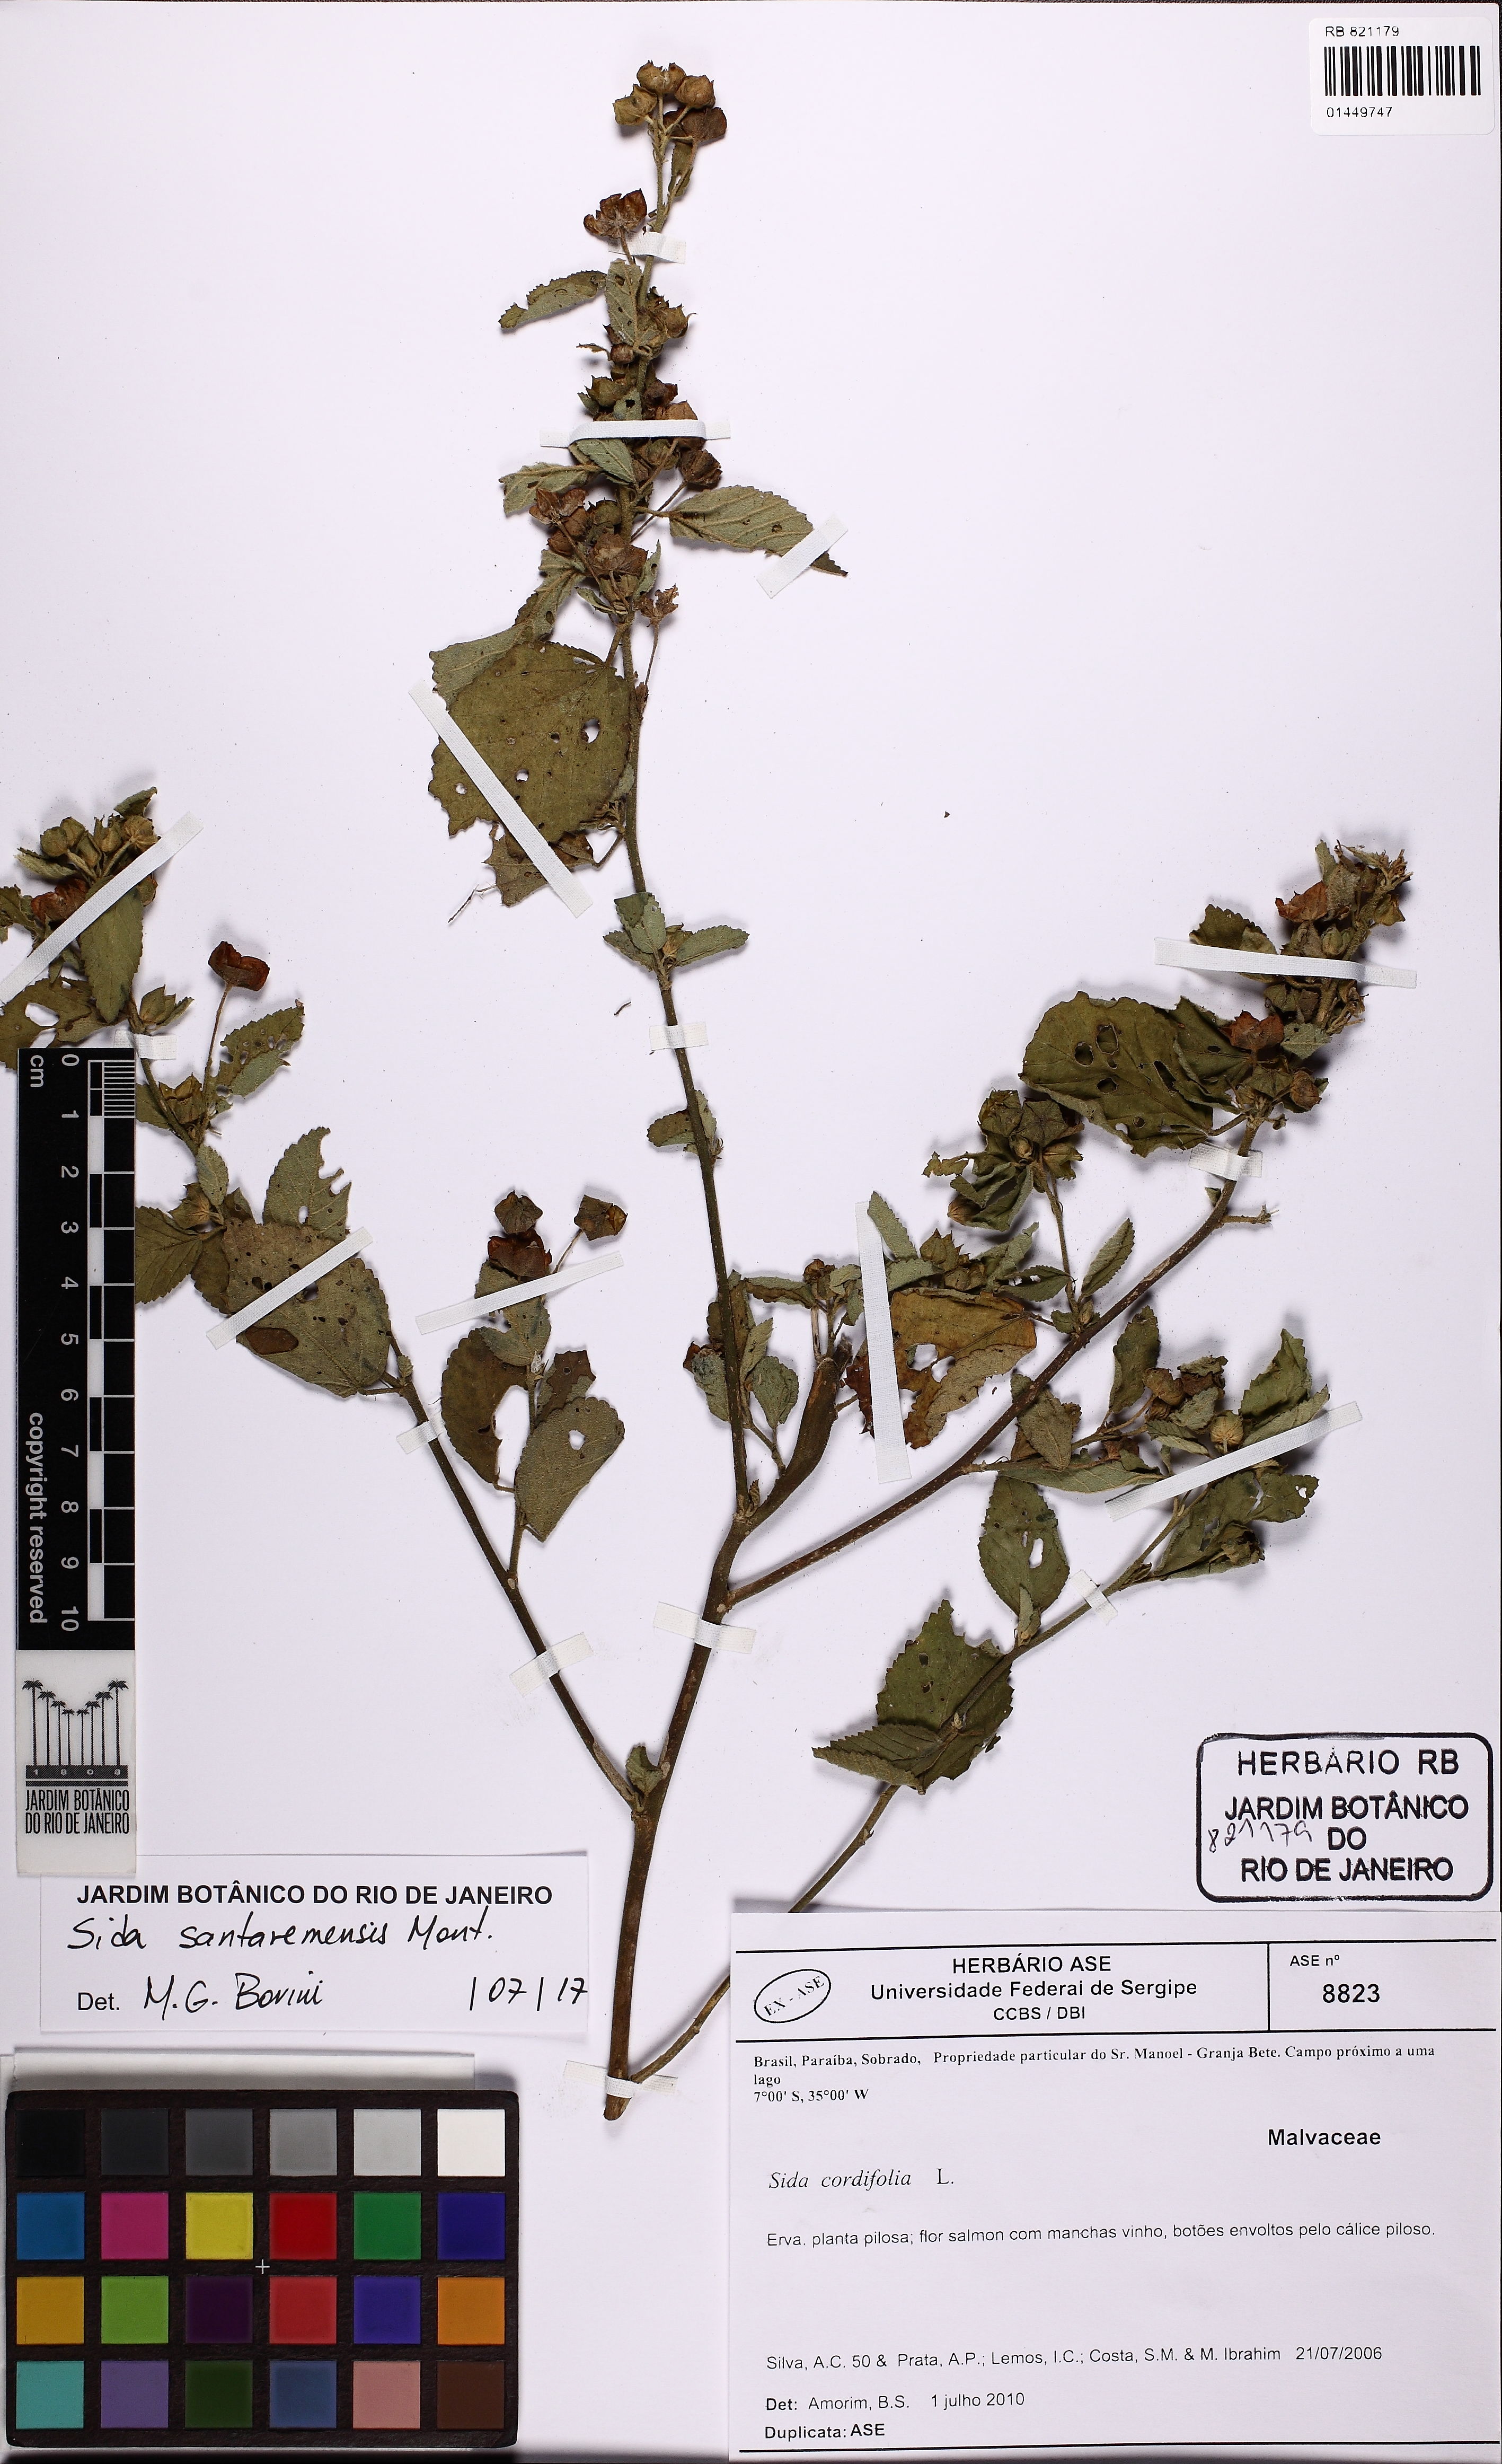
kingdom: Plantae
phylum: Tracheophyta
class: Magnoliopsida
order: Malvales
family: Malvaceae
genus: Sida
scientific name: Sida santaremensis
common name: Moth fanpetals
